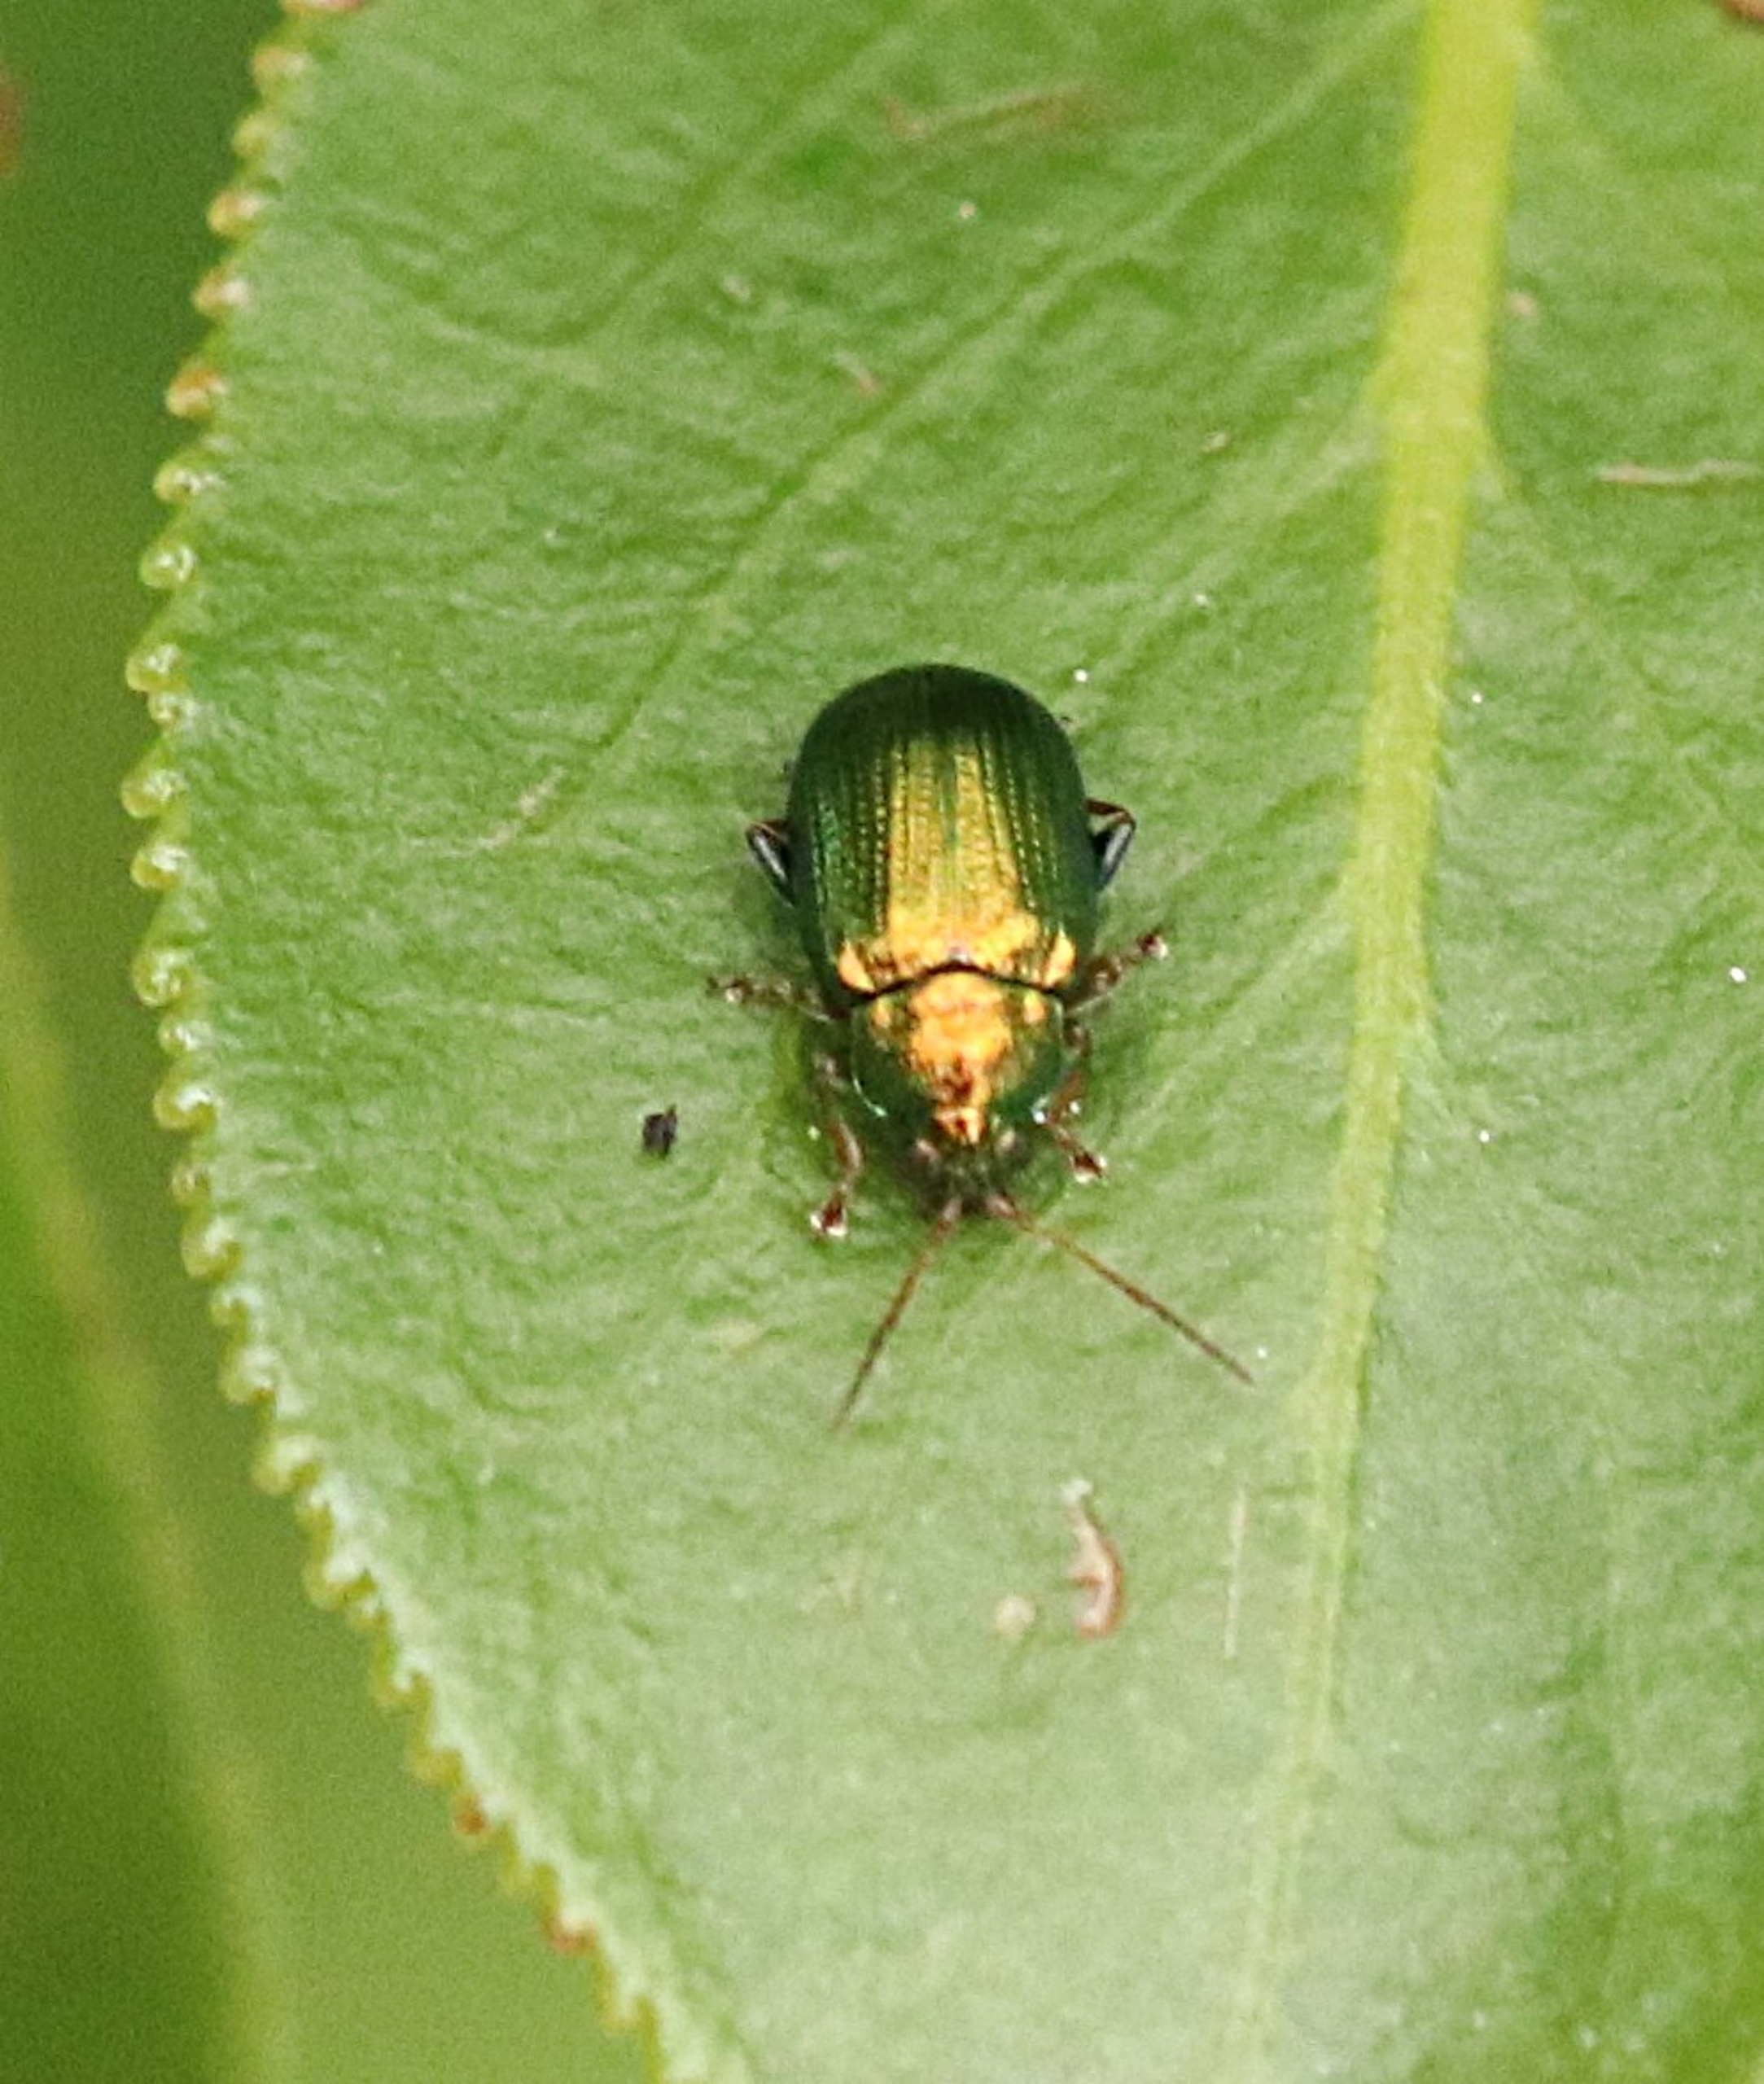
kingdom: Animalia
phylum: Arthropoda
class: Insecta
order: Coleoptera
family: Chrysomelidae
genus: Crepidodera
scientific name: Crepidodera fulvicornis
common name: Lille pilejordloppe
